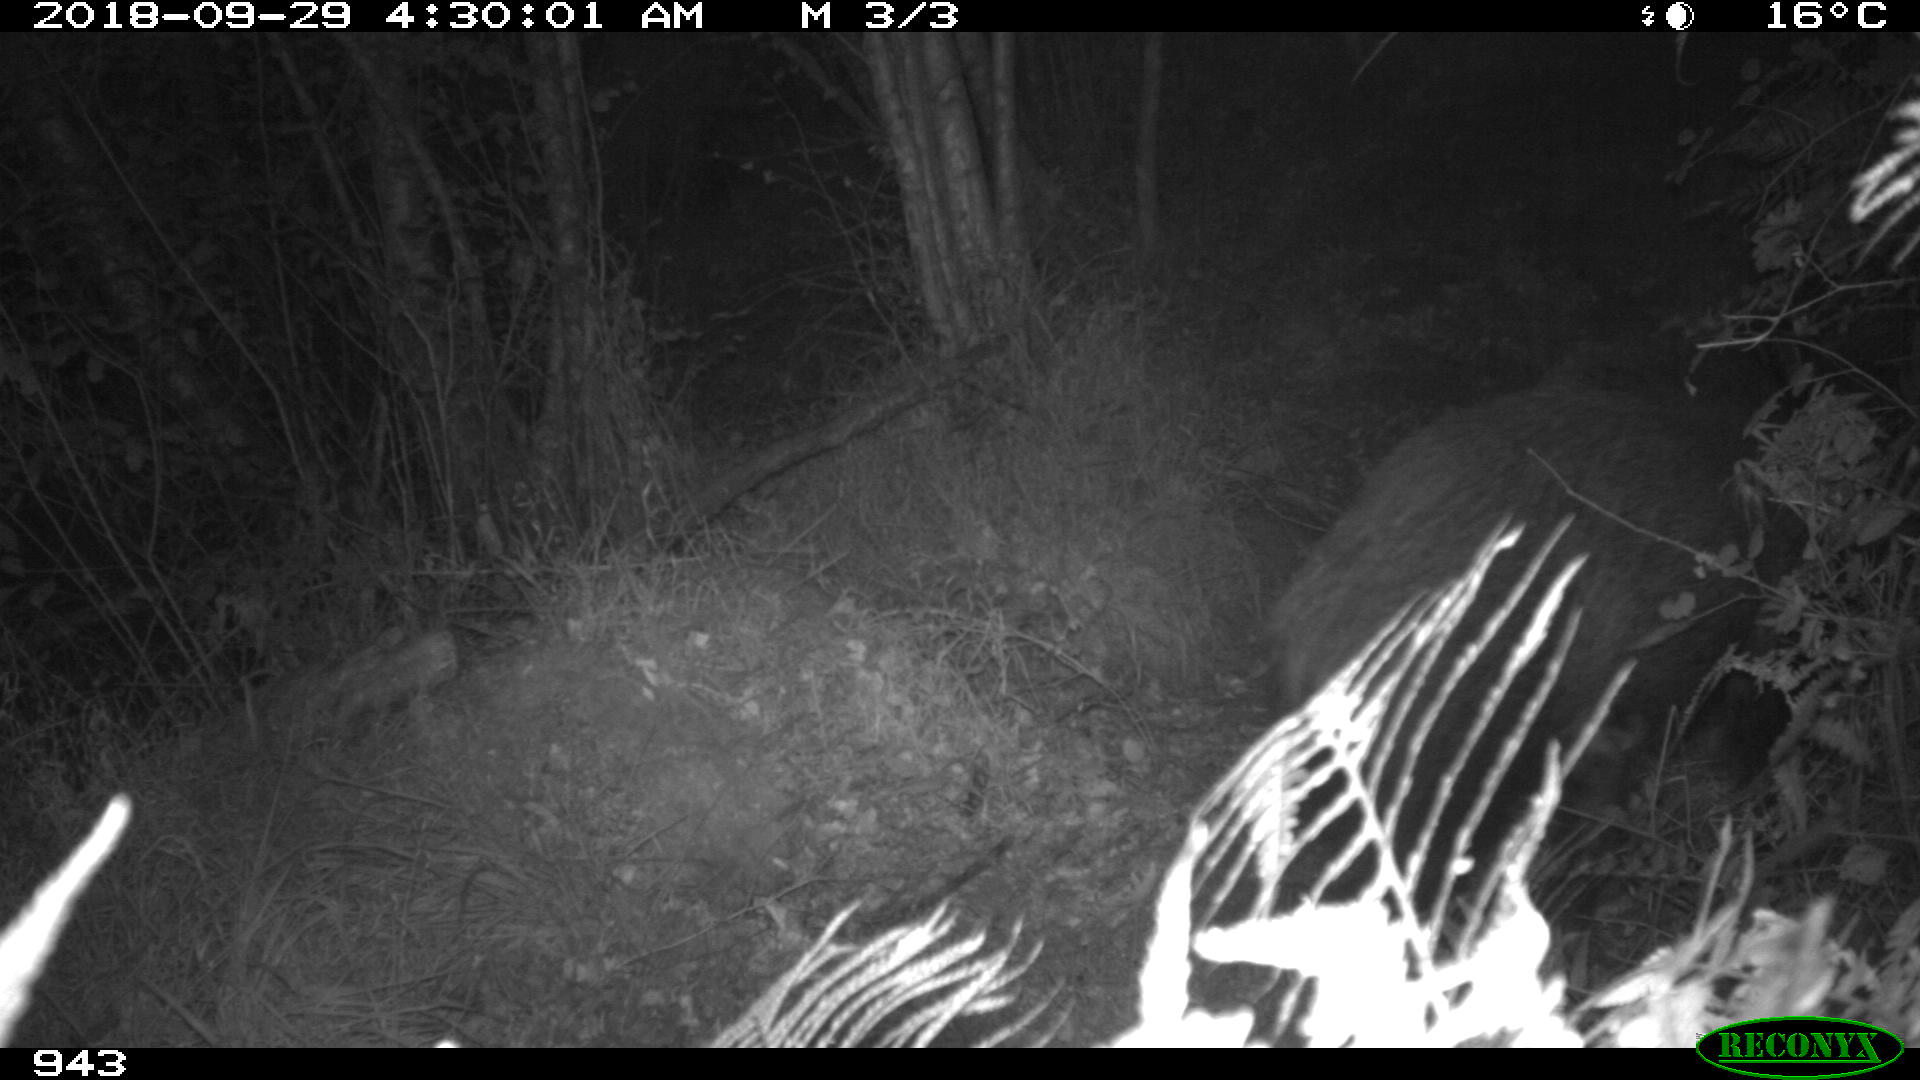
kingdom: Animalia
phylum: Chordata
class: Mammalia
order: Artiodactyla
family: Suidae
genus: Sus
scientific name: Sus scrofa
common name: Wild boar
